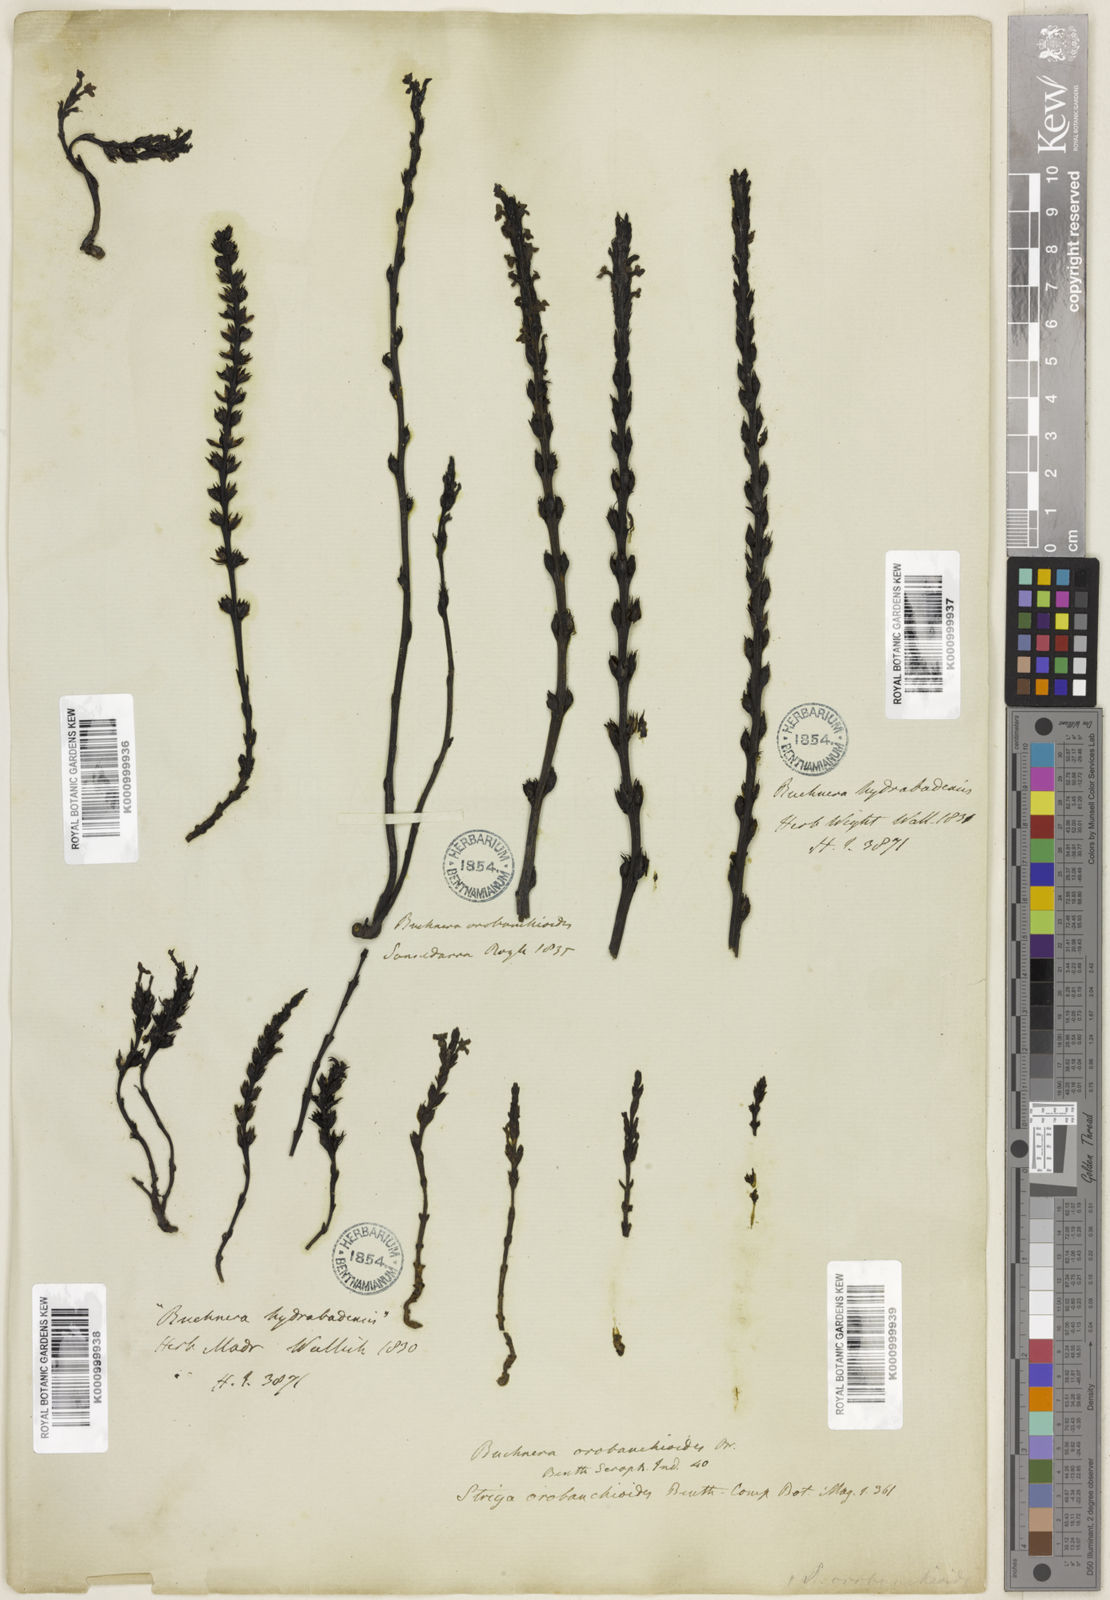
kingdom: Plantae
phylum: Tracheophyta
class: Magnoliopsida
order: Lamiales
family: Orobanchaceae
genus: Striga
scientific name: Striga barthlottii
